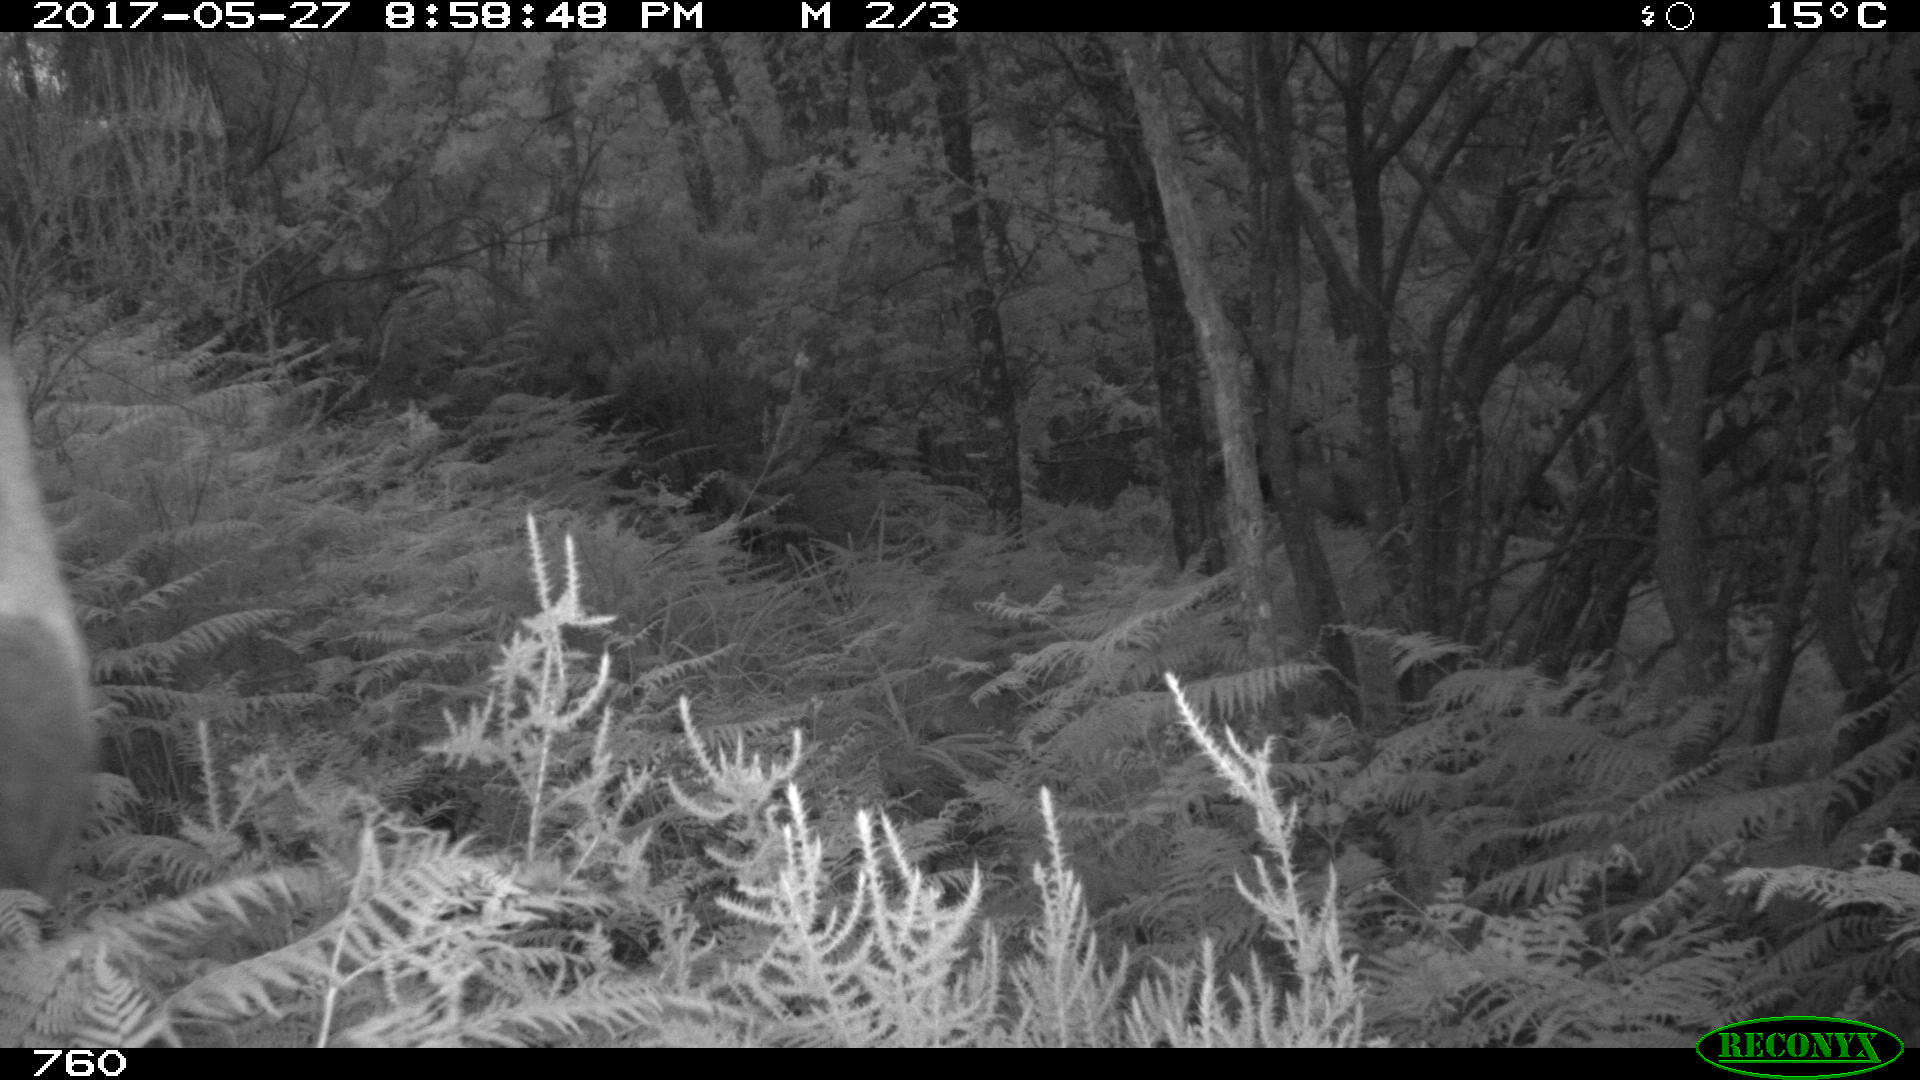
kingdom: Animalia
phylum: Chordata
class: Mammalia
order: Perissodactyla
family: Equidae
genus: Equus
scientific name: Equus caballus
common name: Horse
